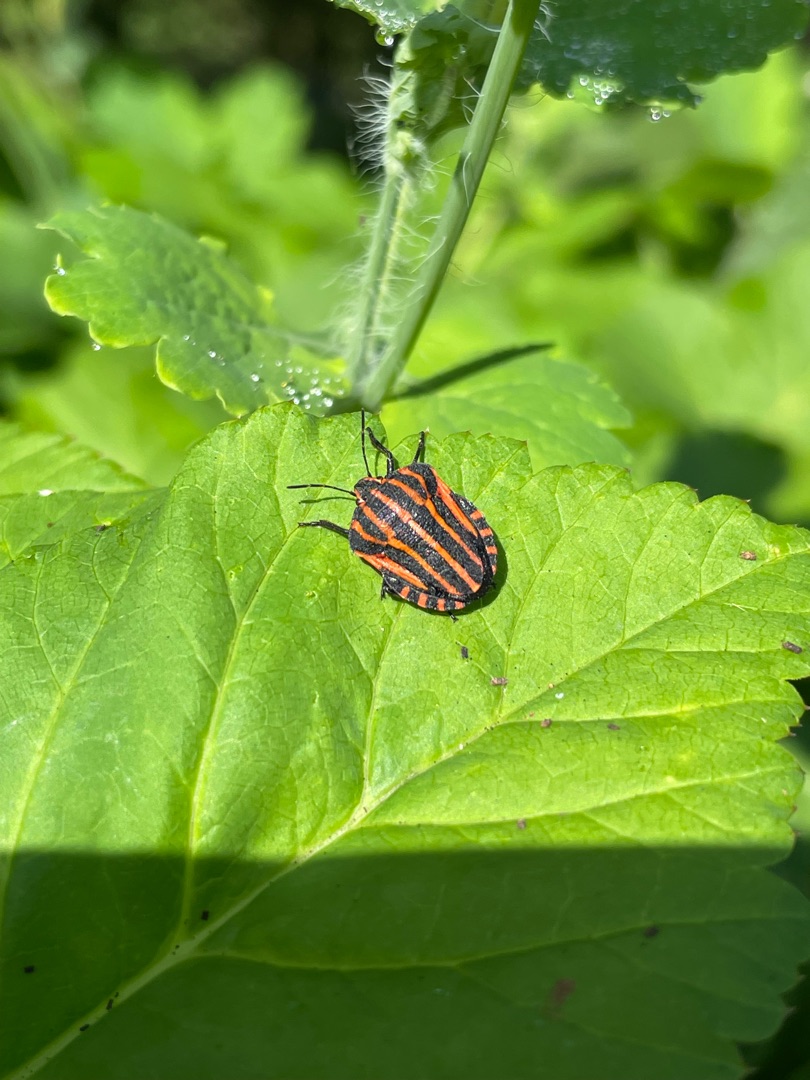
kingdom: Animalia
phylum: Arthropoda
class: Insecta
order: Hemiptera
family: Pentatomidae
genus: Graphosoma
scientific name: Graphosoma italicum
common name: Stribetæge
